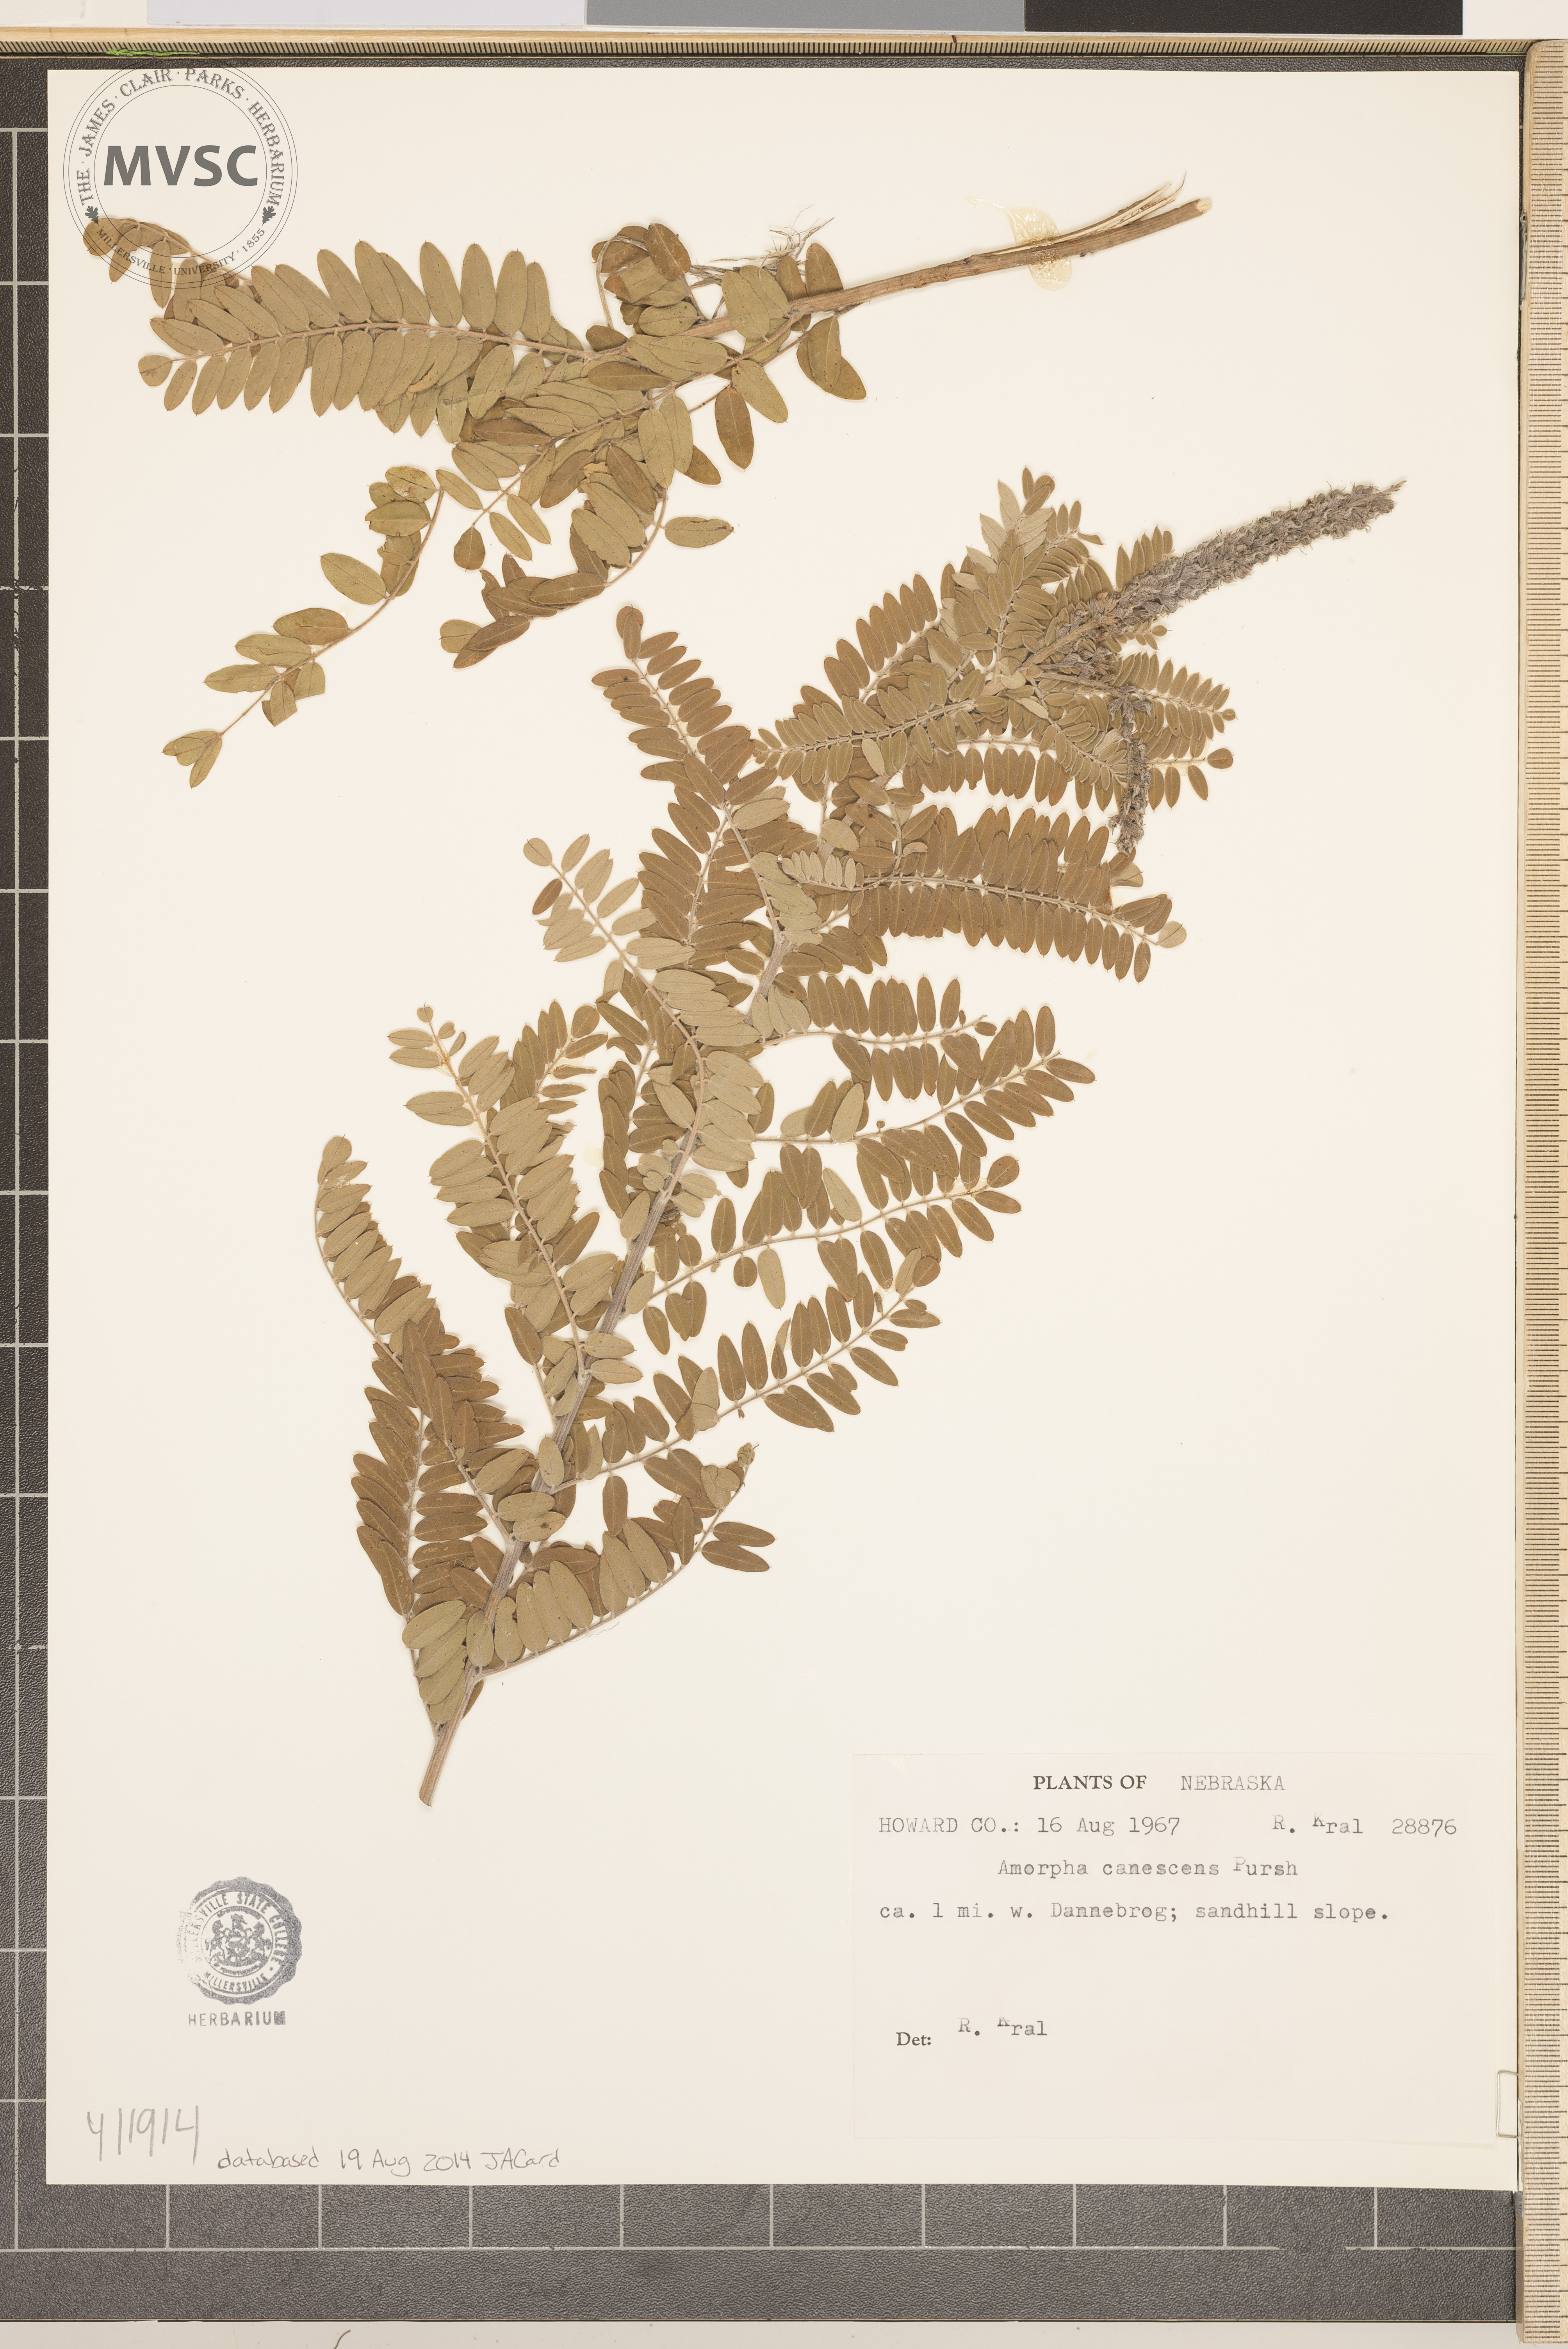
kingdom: Plantae
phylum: Tracheophyta
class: Magnoliopsida
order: Fabales
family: Fabaceae
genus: Amorpha
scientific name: Amorpha canescens
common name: Leadplant
